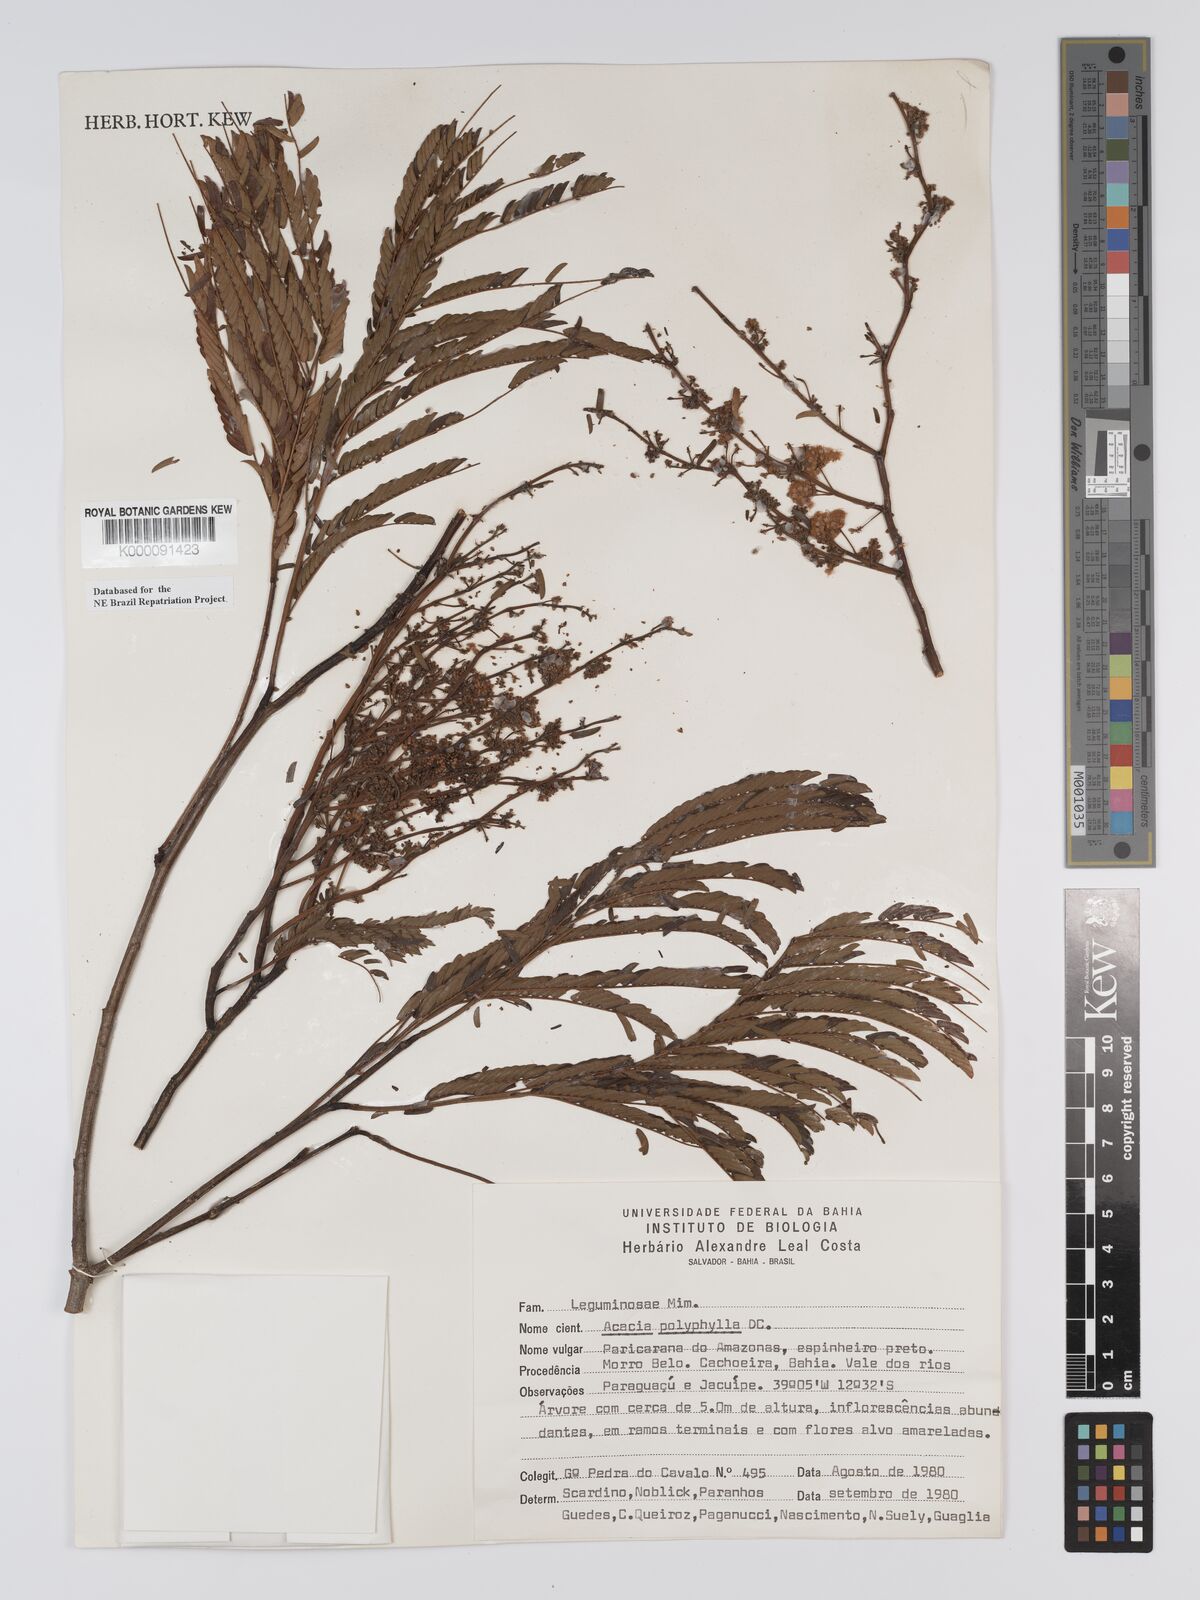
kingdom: Plantae
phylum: Tracheophyta
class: Magnoliopsida
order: Fabales
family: Fabaceae
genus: Senegalia
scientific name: Senegalia polyphylla
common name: White-tamarind
